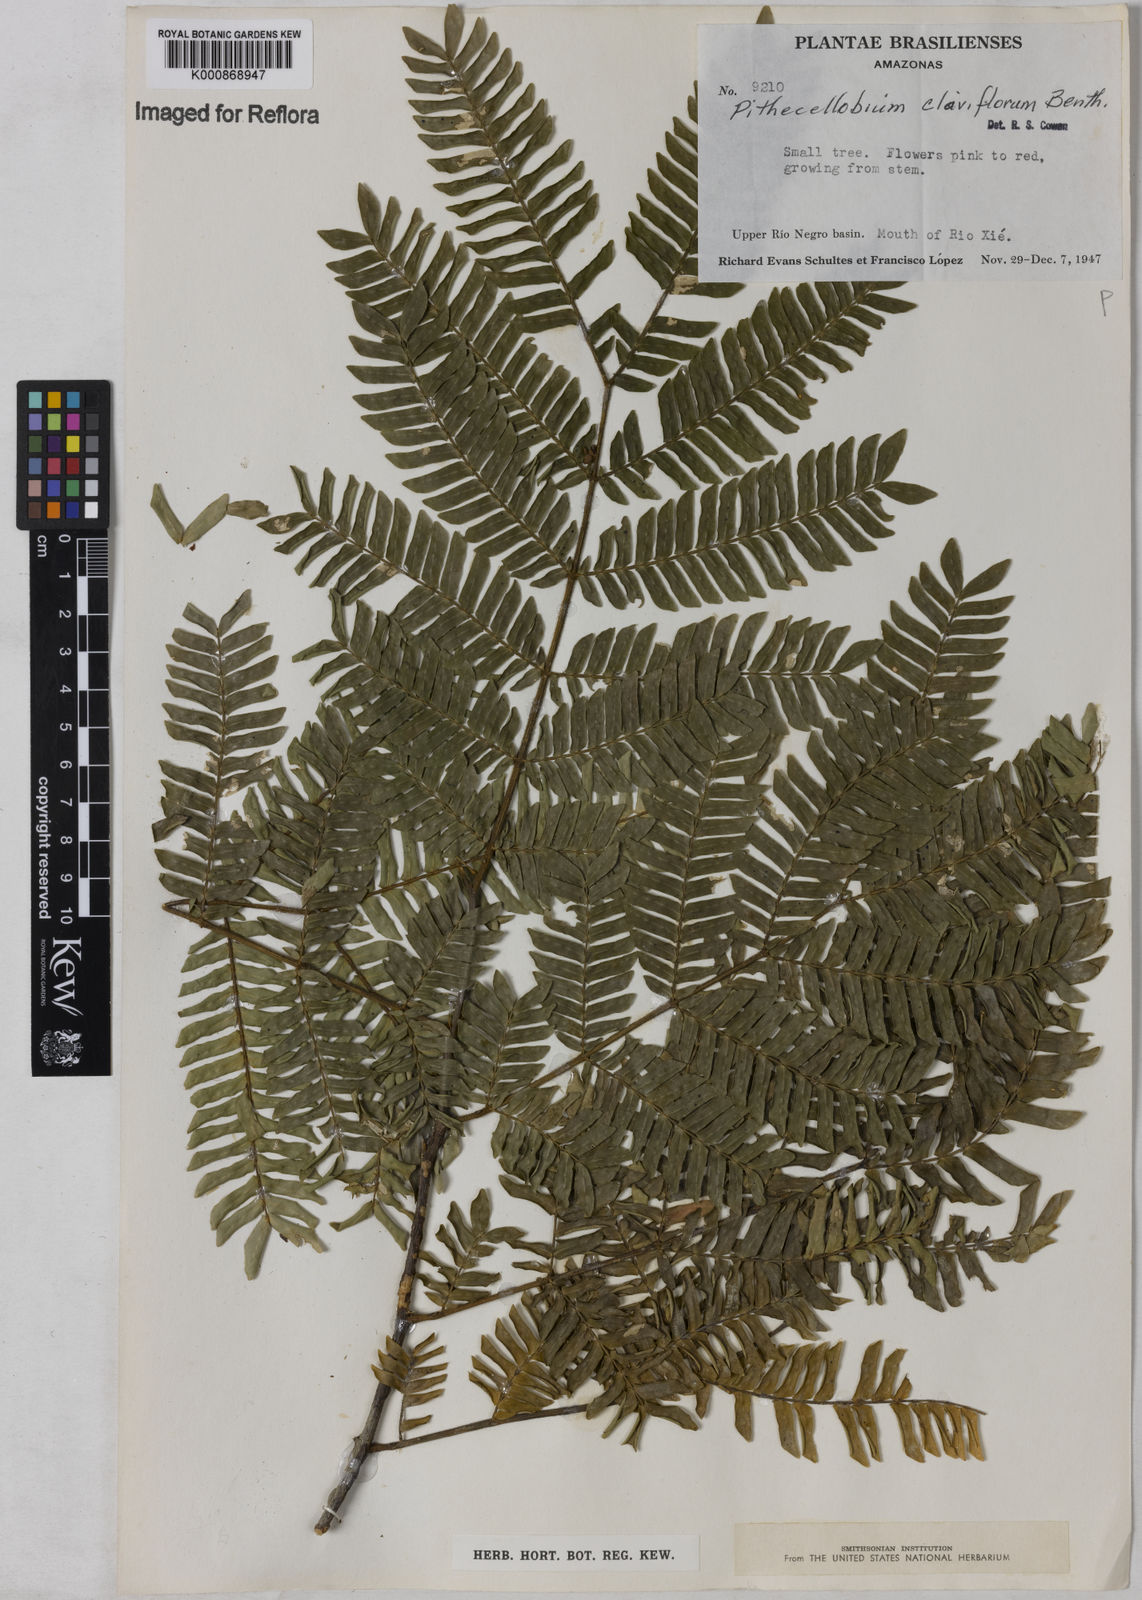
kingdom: Plantae
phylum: Tracheophyta
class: Magnoliopsida
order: Fabales
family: Fabaceae
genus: Zygia
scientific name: Zygia claviflora
